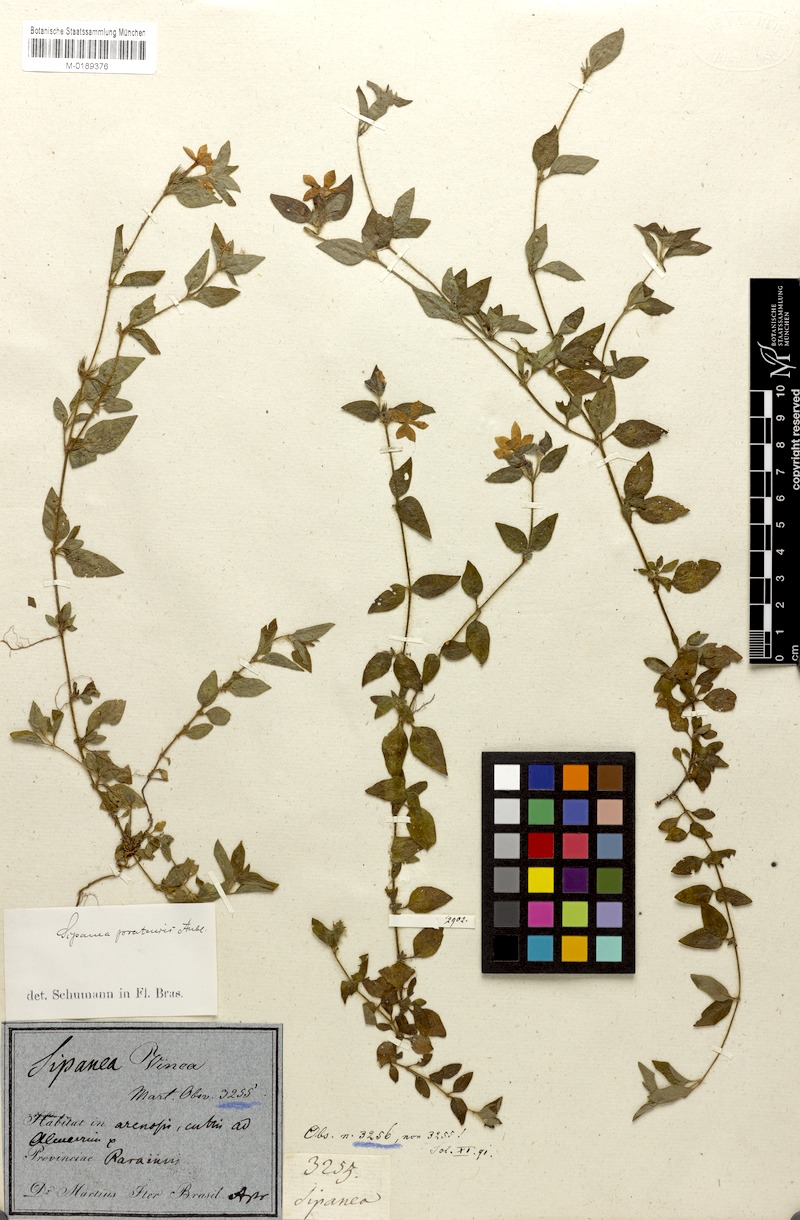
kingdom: Plantae
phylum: Tracheophyta
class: Magnoliopsida
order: Gentianales
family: Rubiaceae
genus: Sipanea
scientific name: Sipanea pratensis
